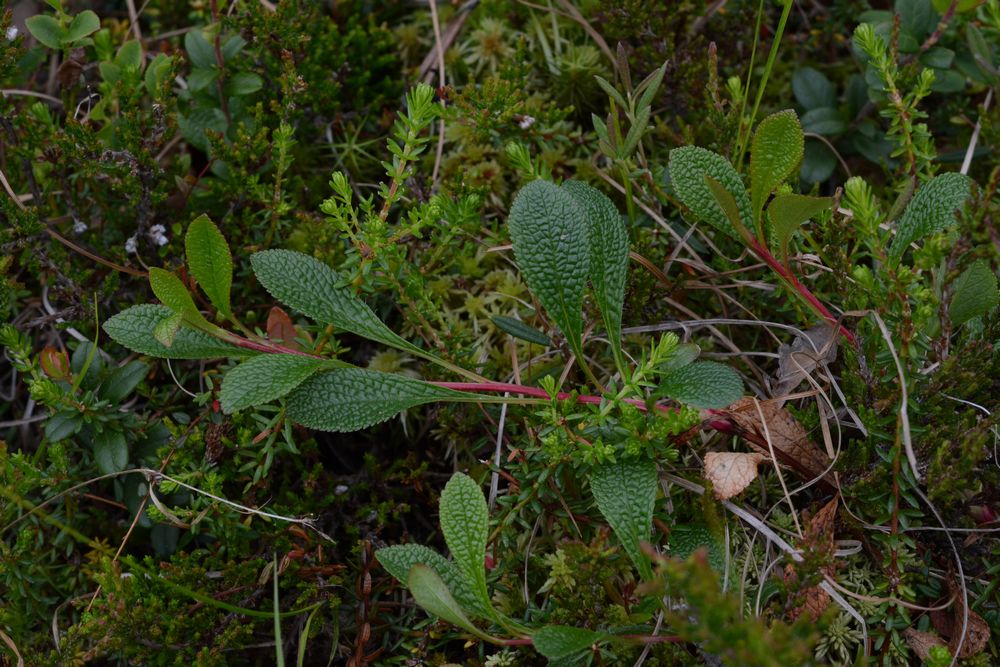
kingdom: Plantae
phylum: Tracheophyta
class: Magnoliopsida
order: Ericales
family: Ericaceae
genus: Arctostaphylos
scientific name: Arctostaphylos alpinus
